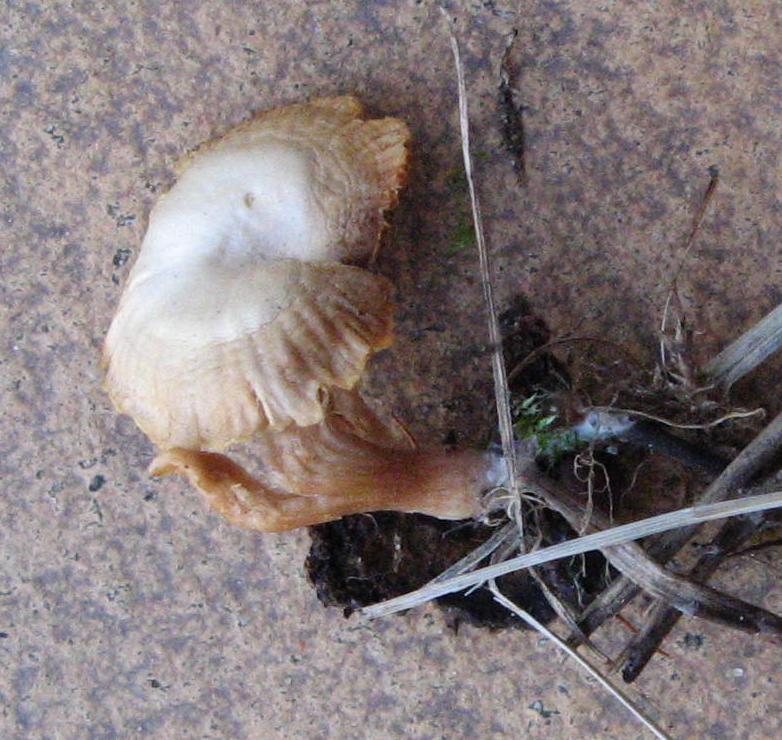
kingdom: Fungi
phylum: Basidiomycota
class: Agaricomycetes
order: Agaricales
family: Tubariaceae
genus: Tubaria
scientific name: Tubaria furfuracea
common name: kliddet fnughat
